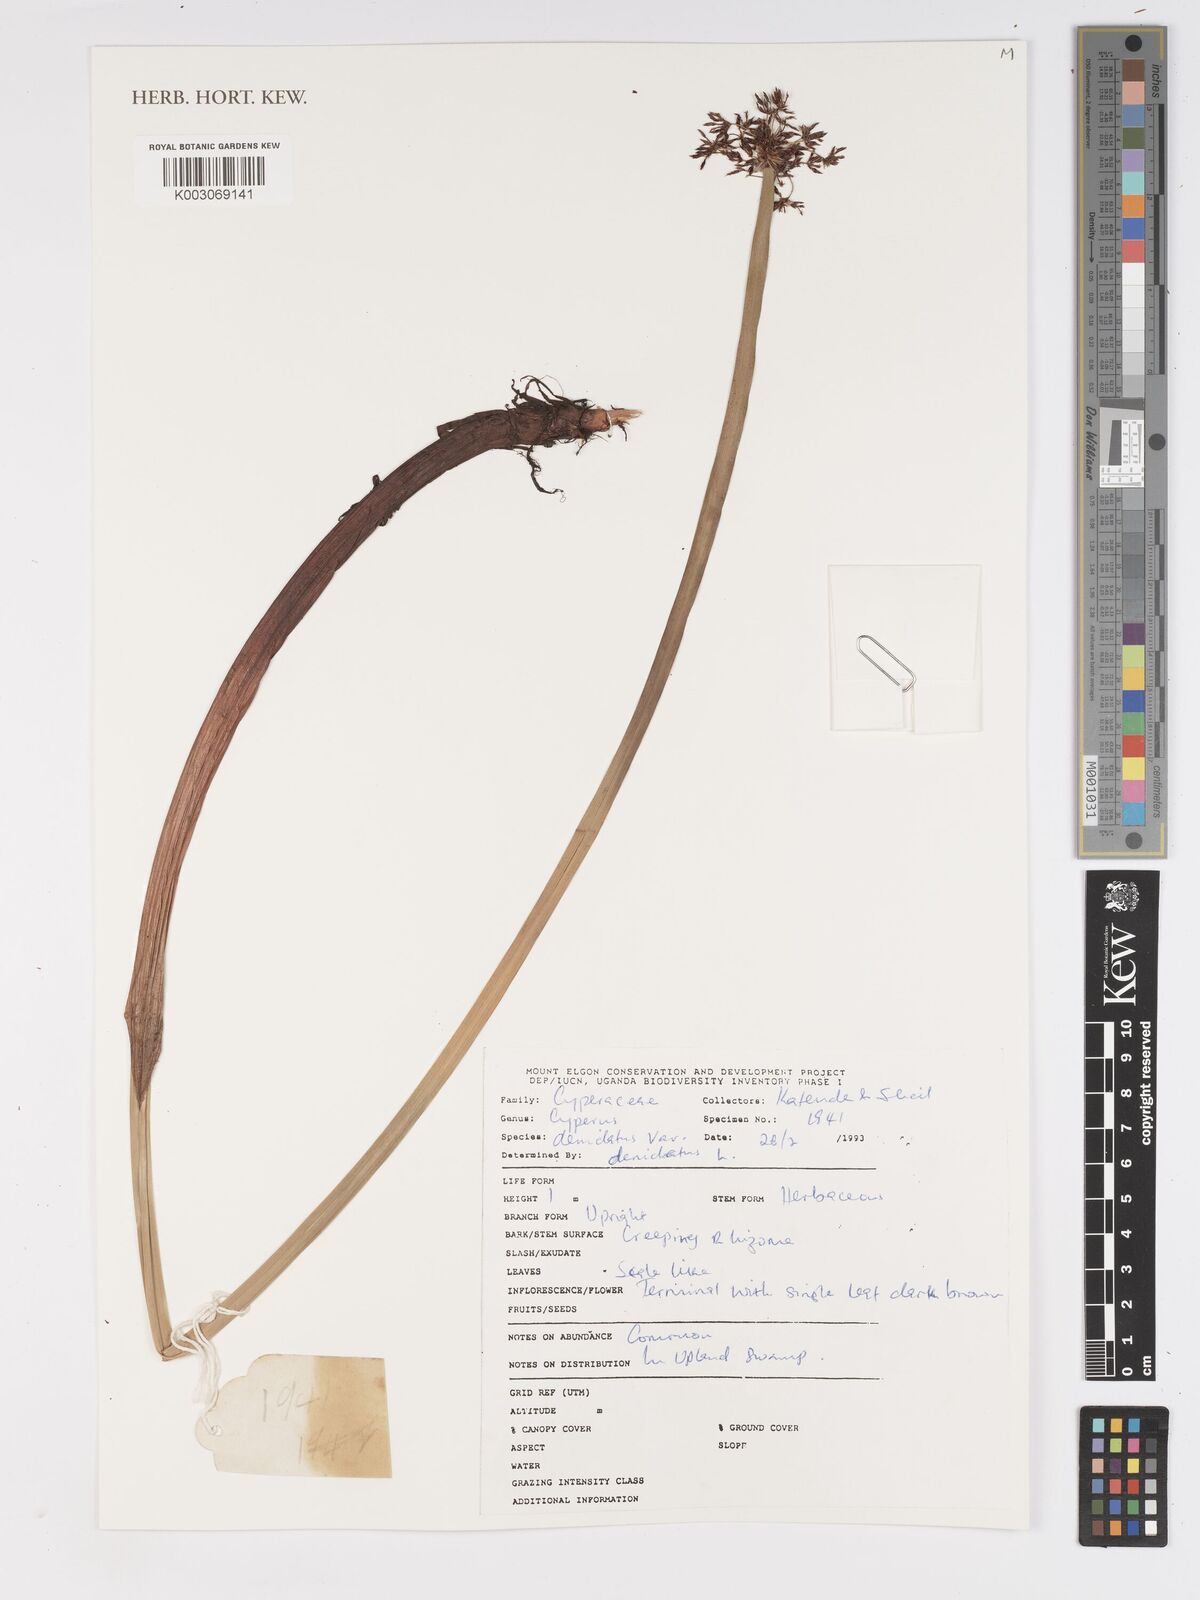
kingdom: Plantae
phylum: Tracheophyta
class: Liliopsida
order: Poales
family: Cyperaceae
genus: Cyperus
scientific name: Cyperus denudatus
